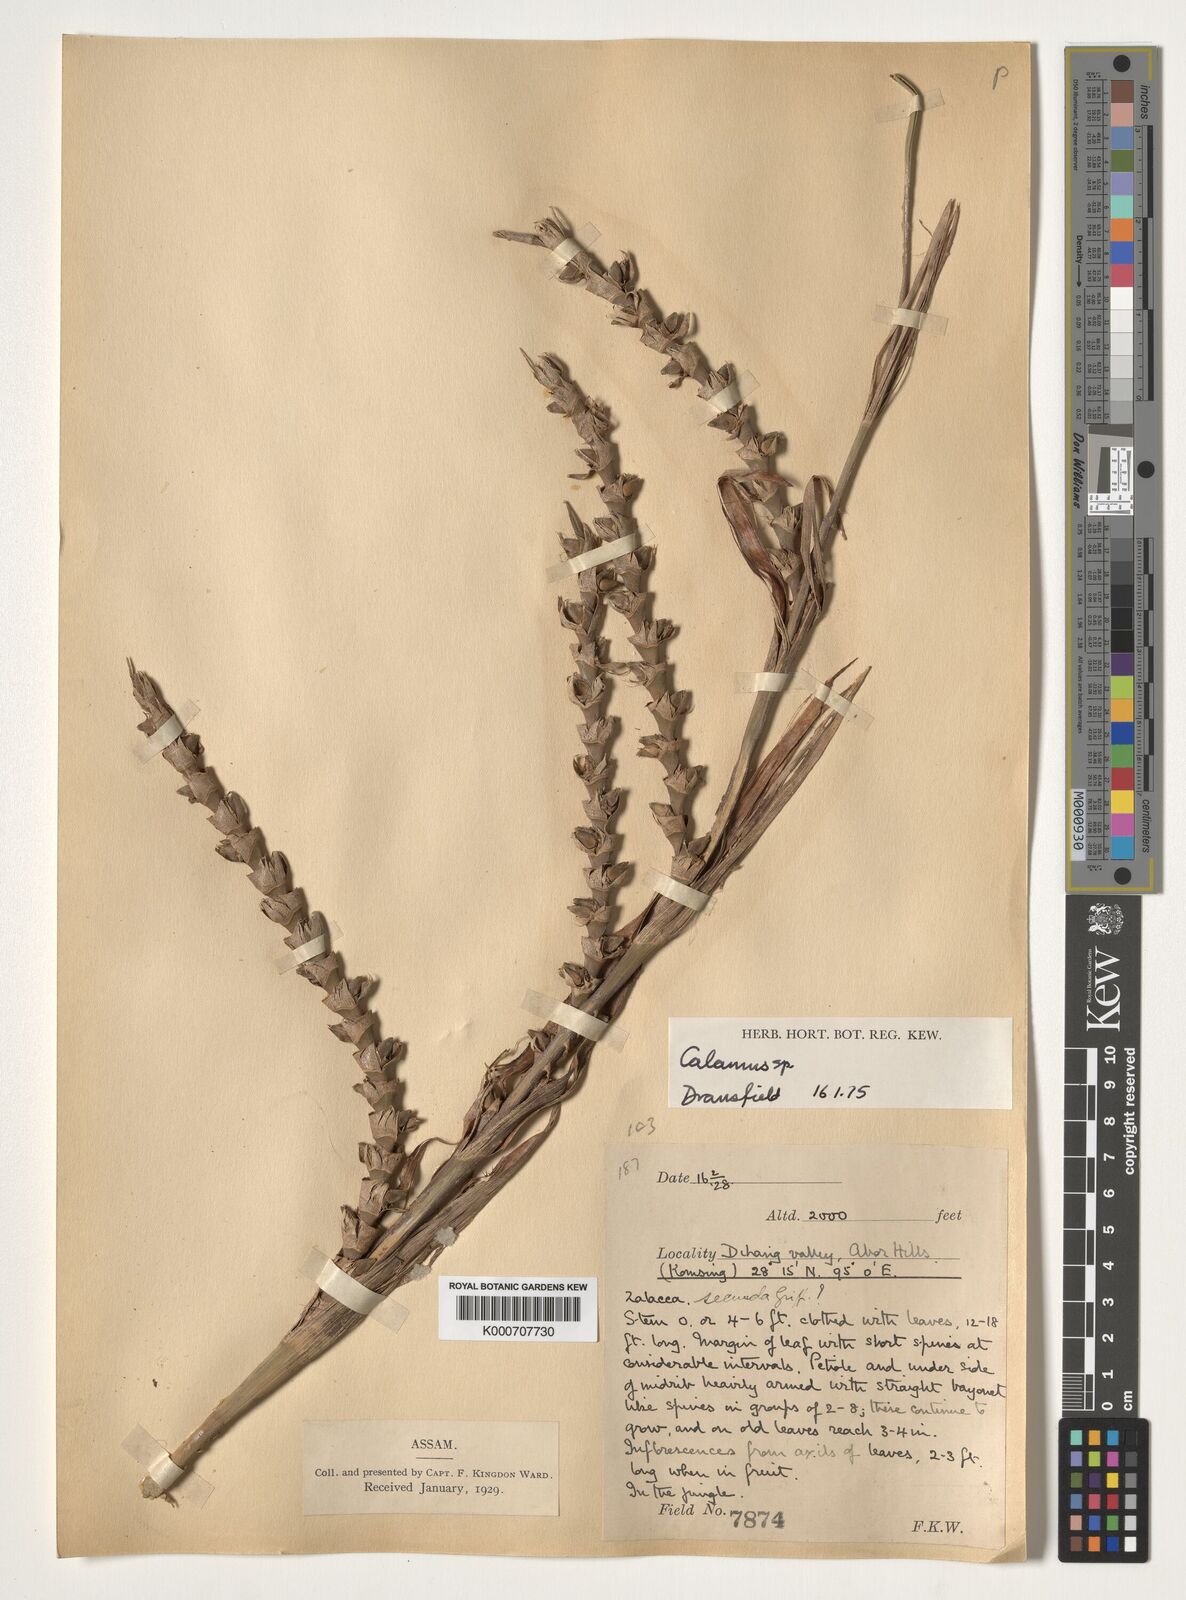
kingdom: Plantae
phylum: Tracheophyta
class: Liliopsida
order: Arecales
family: Arecaceae
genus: Calamus
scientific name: Calamus
